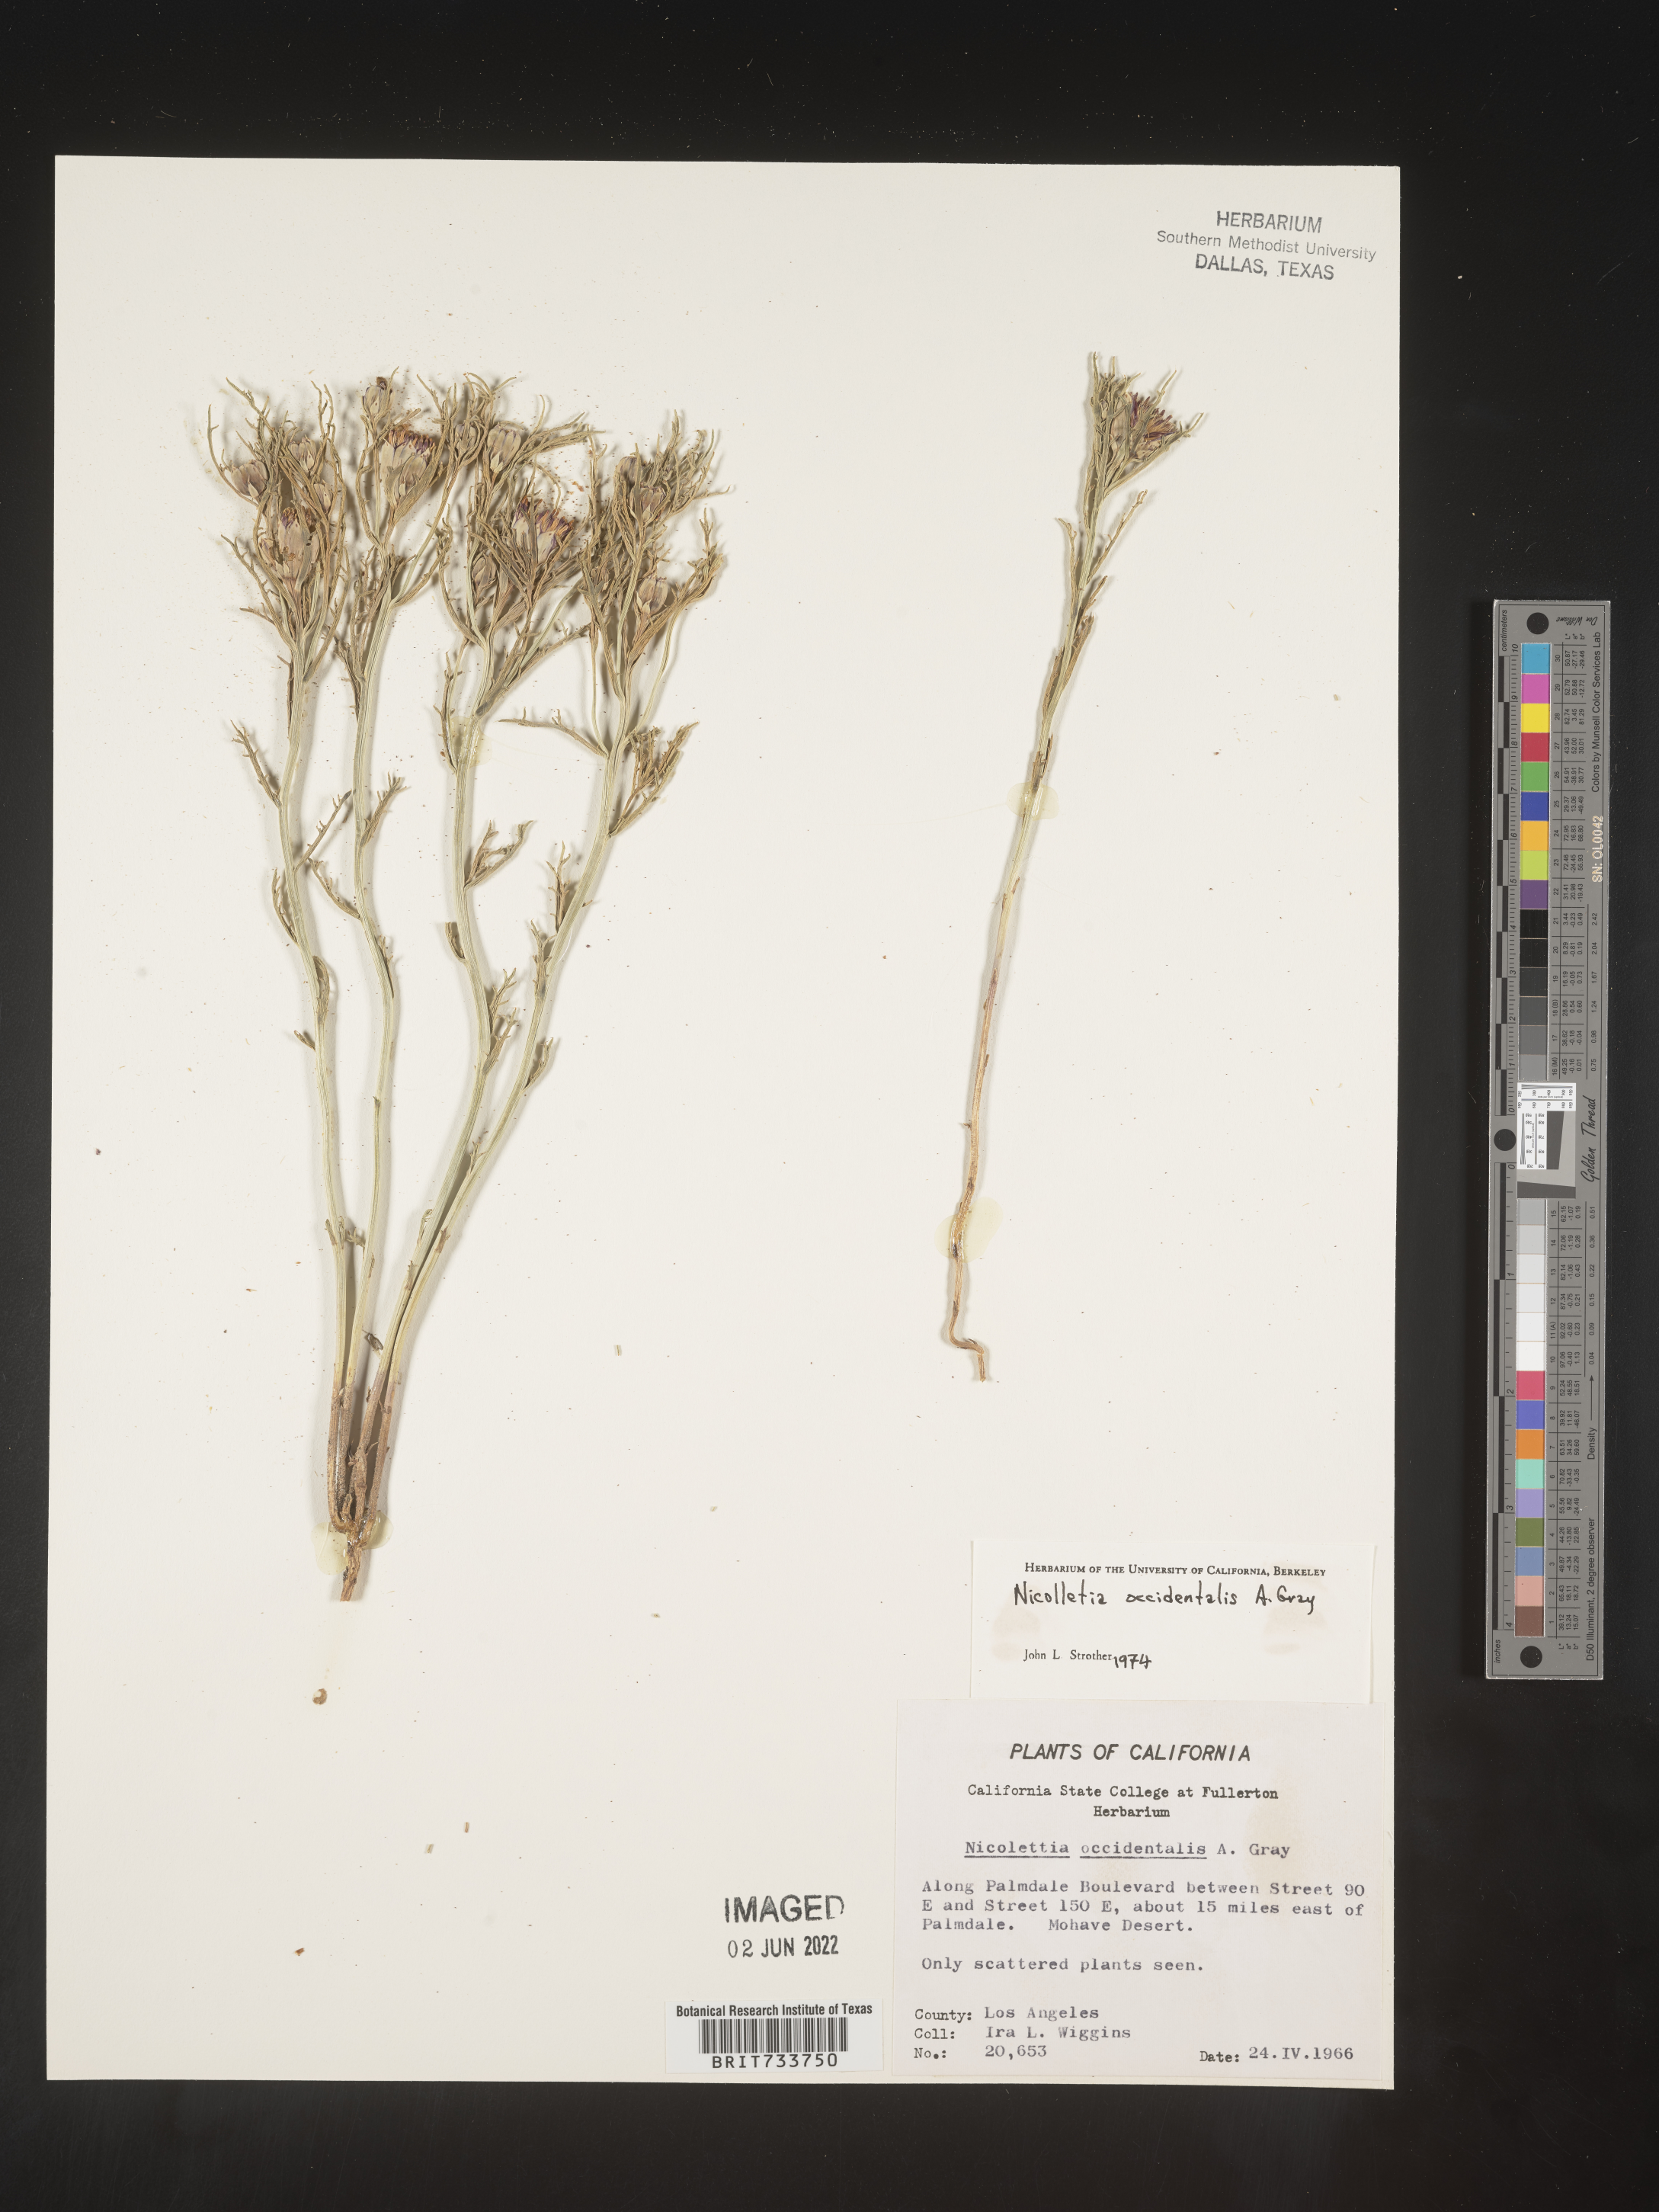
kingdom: Plantae
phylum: Tracheophyta
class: Magnoliopsida
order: Asterales
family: Asteraceae
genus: Nicolletia
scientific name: Nicolletia occidentalis
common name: Hole-in-the-sand-plant
